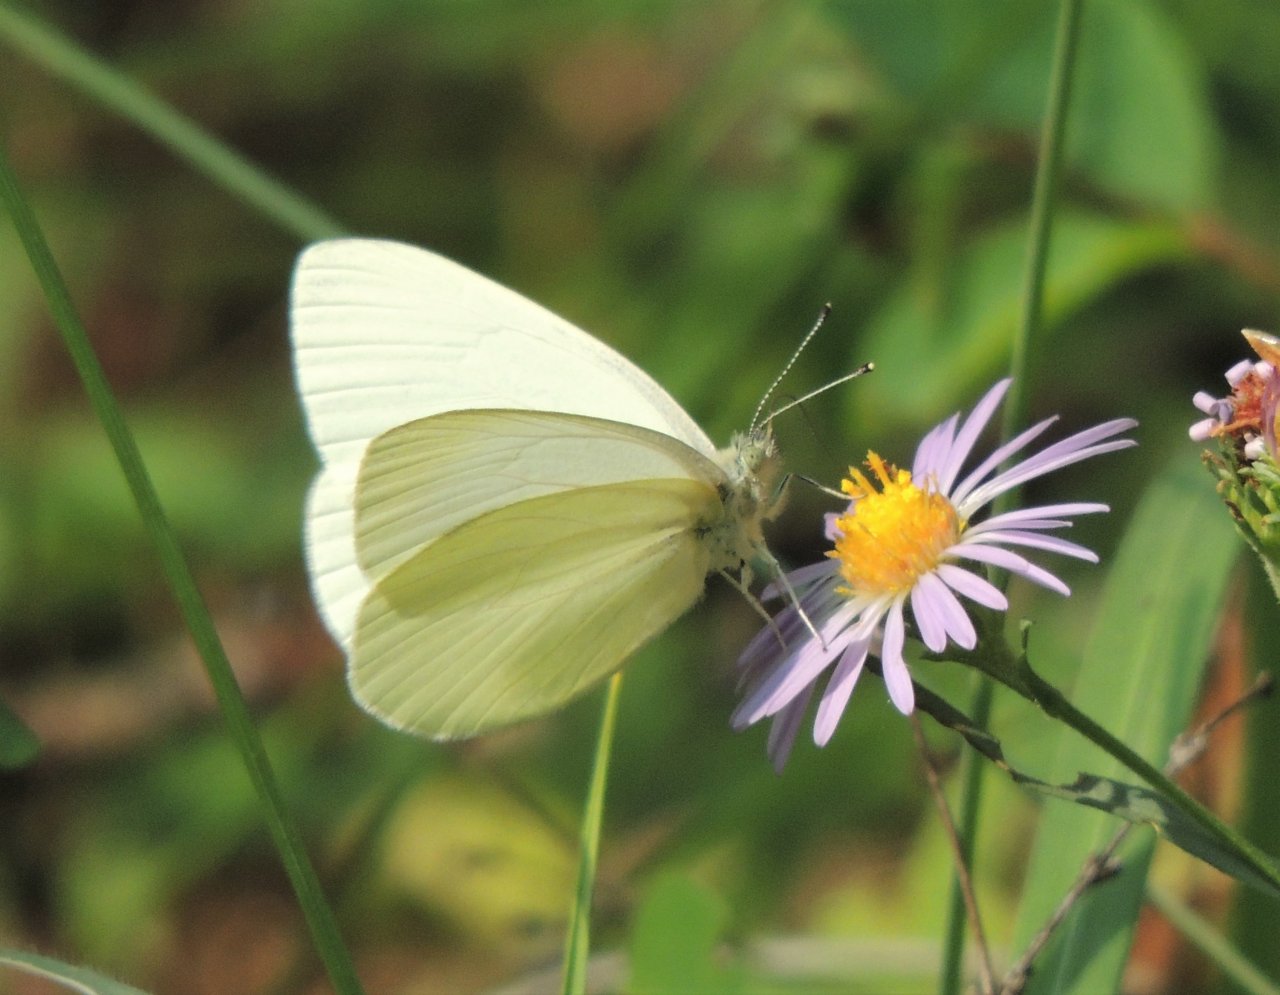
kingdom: Animalia
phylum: Arthropoda
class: Insecta
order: Lepidoptera
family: Pieridae
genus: Pieris
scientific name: Pieris marginalis
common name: Margined White
